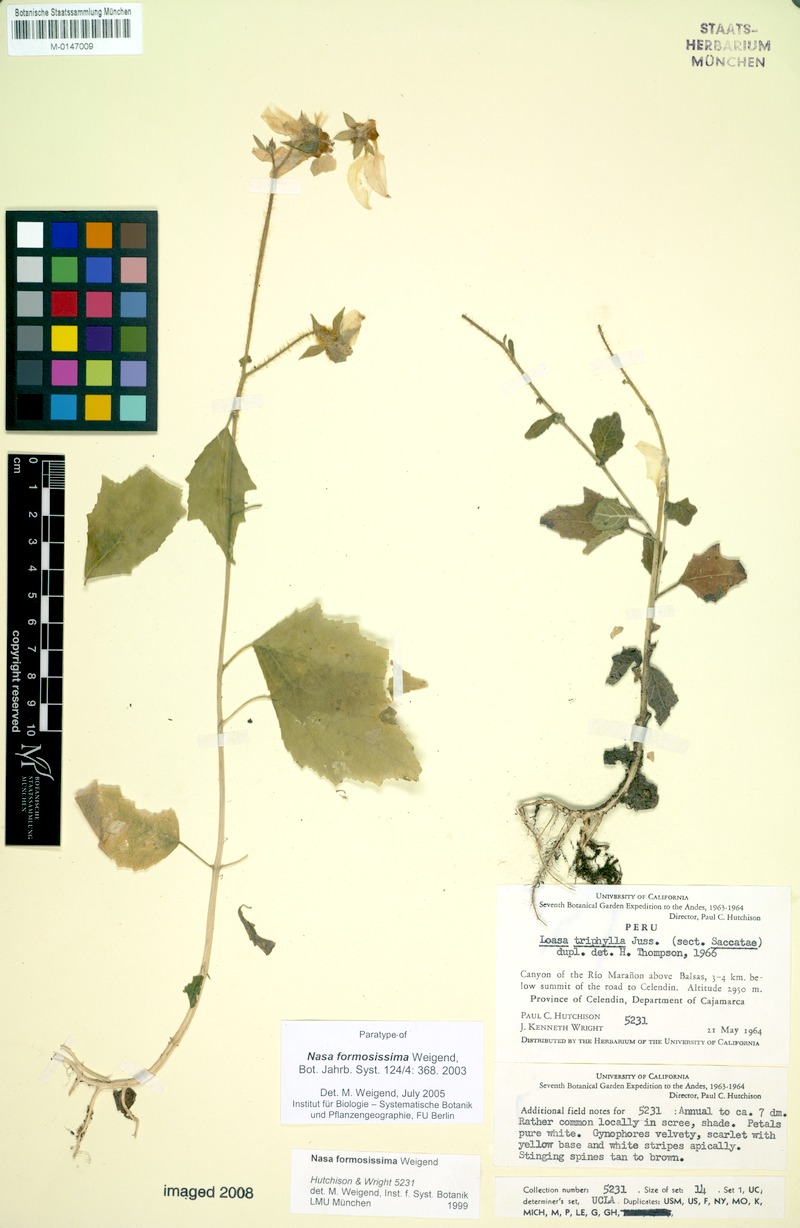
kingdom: Plantae
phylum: Tracheophyta
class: Magnoliopsida
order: Cornales
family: Loasaceae
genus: Nasa
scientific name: Nasa formosissima
